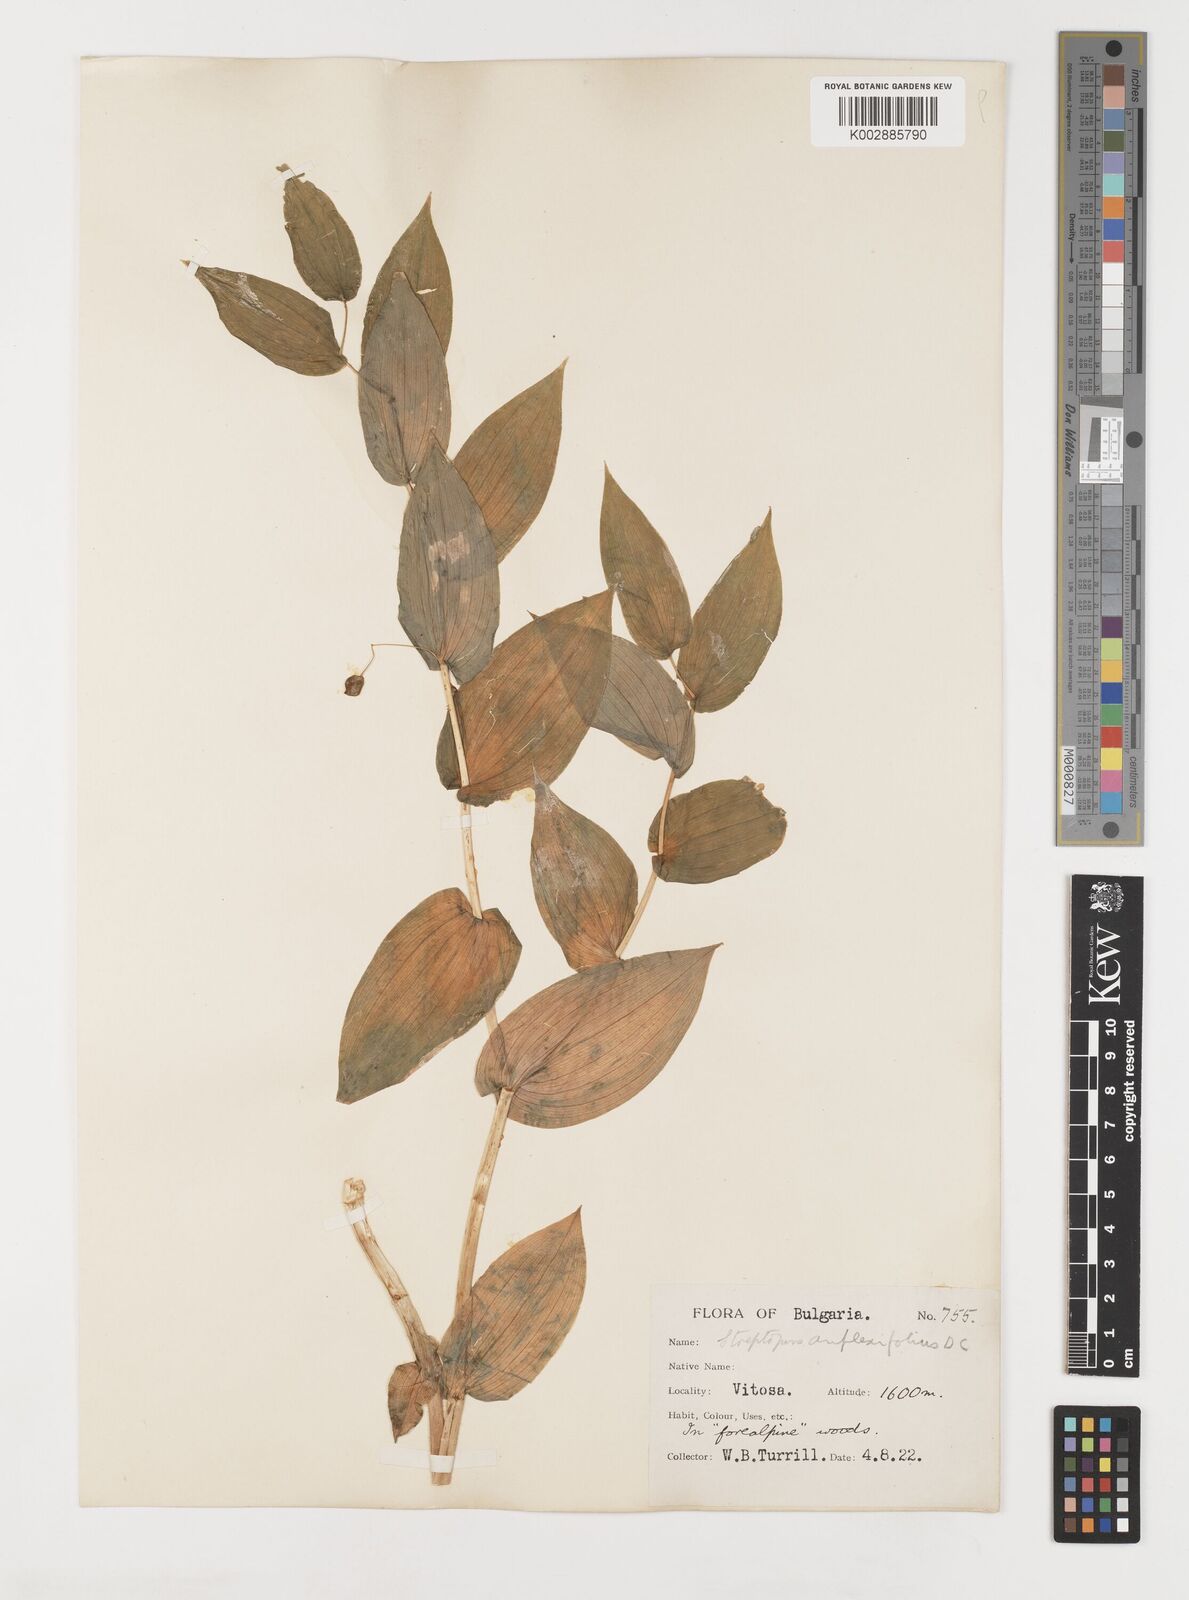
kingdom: Plantae
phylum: Tracheophyta
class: Liliopsida
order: Liliales
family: Liliaceae
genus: Streptopus
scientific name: Streptopus amplexifolius
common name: Clasp twisted stalk
